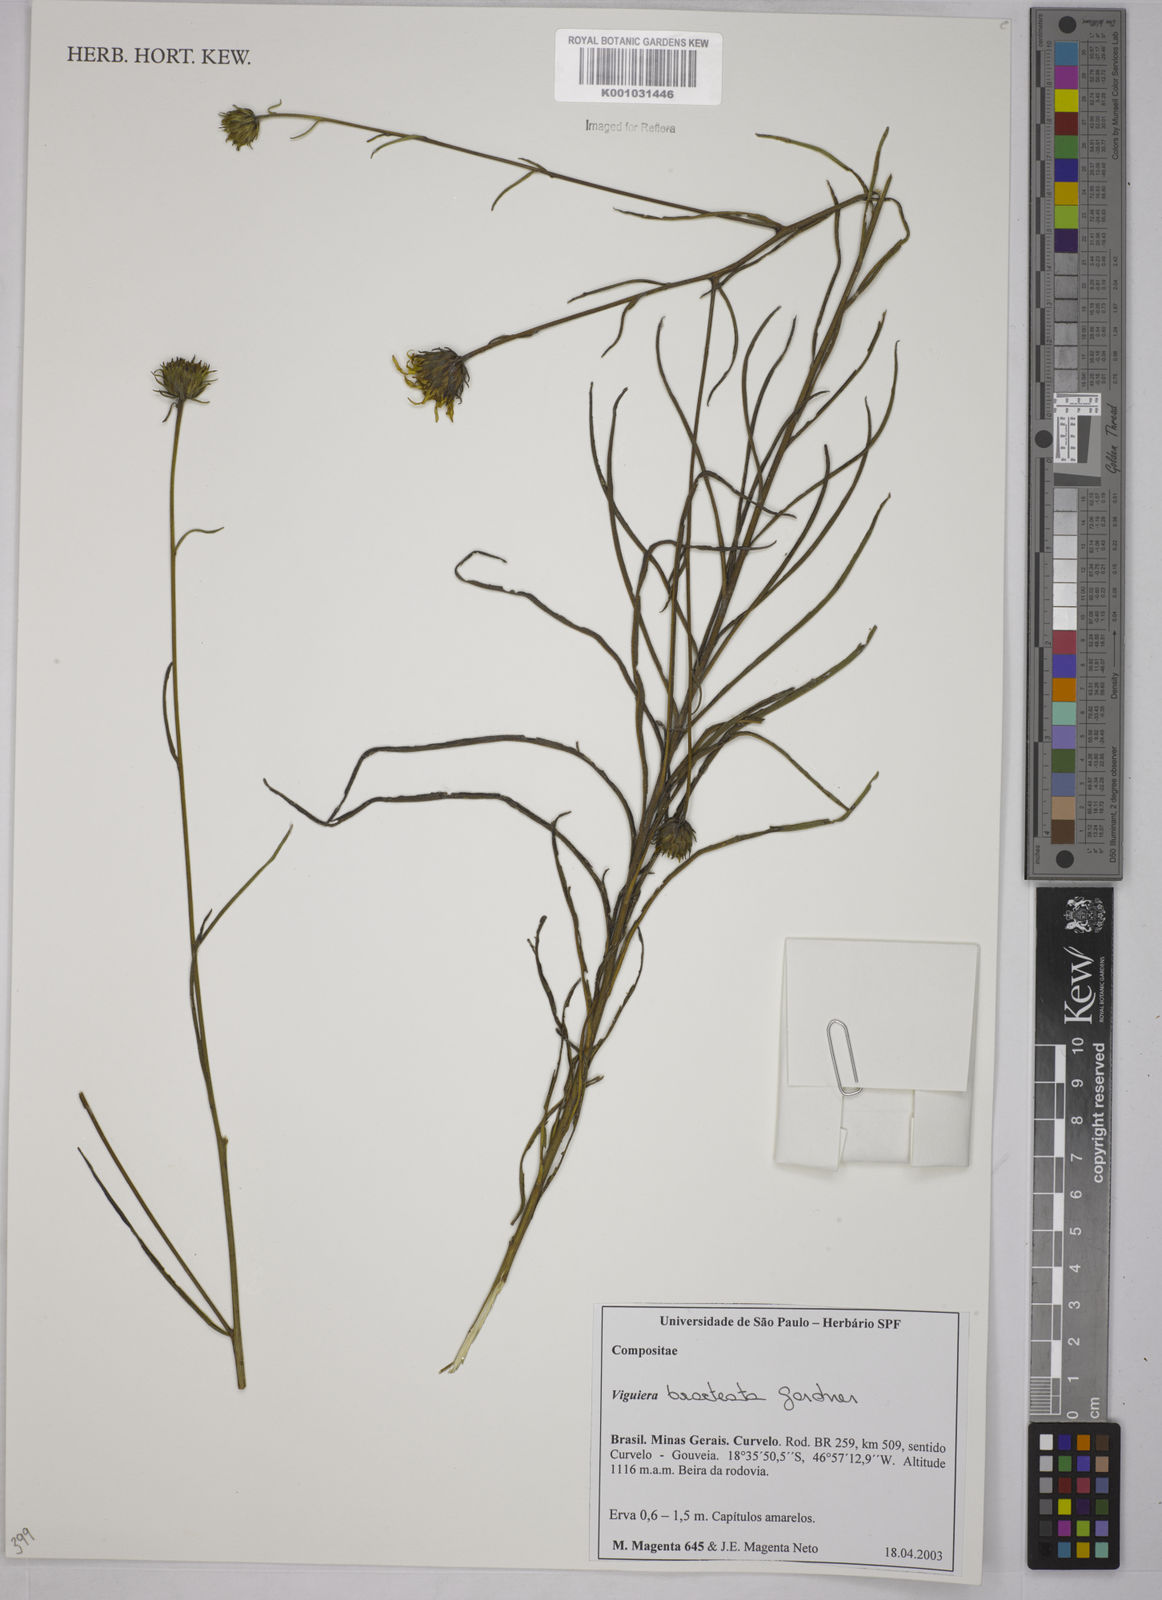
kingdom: Plantae
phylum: Tracheophyta
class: Magnoliopsida
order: Asterales
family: Asteraceae
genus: Aldama
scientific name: Aldama bracteata
